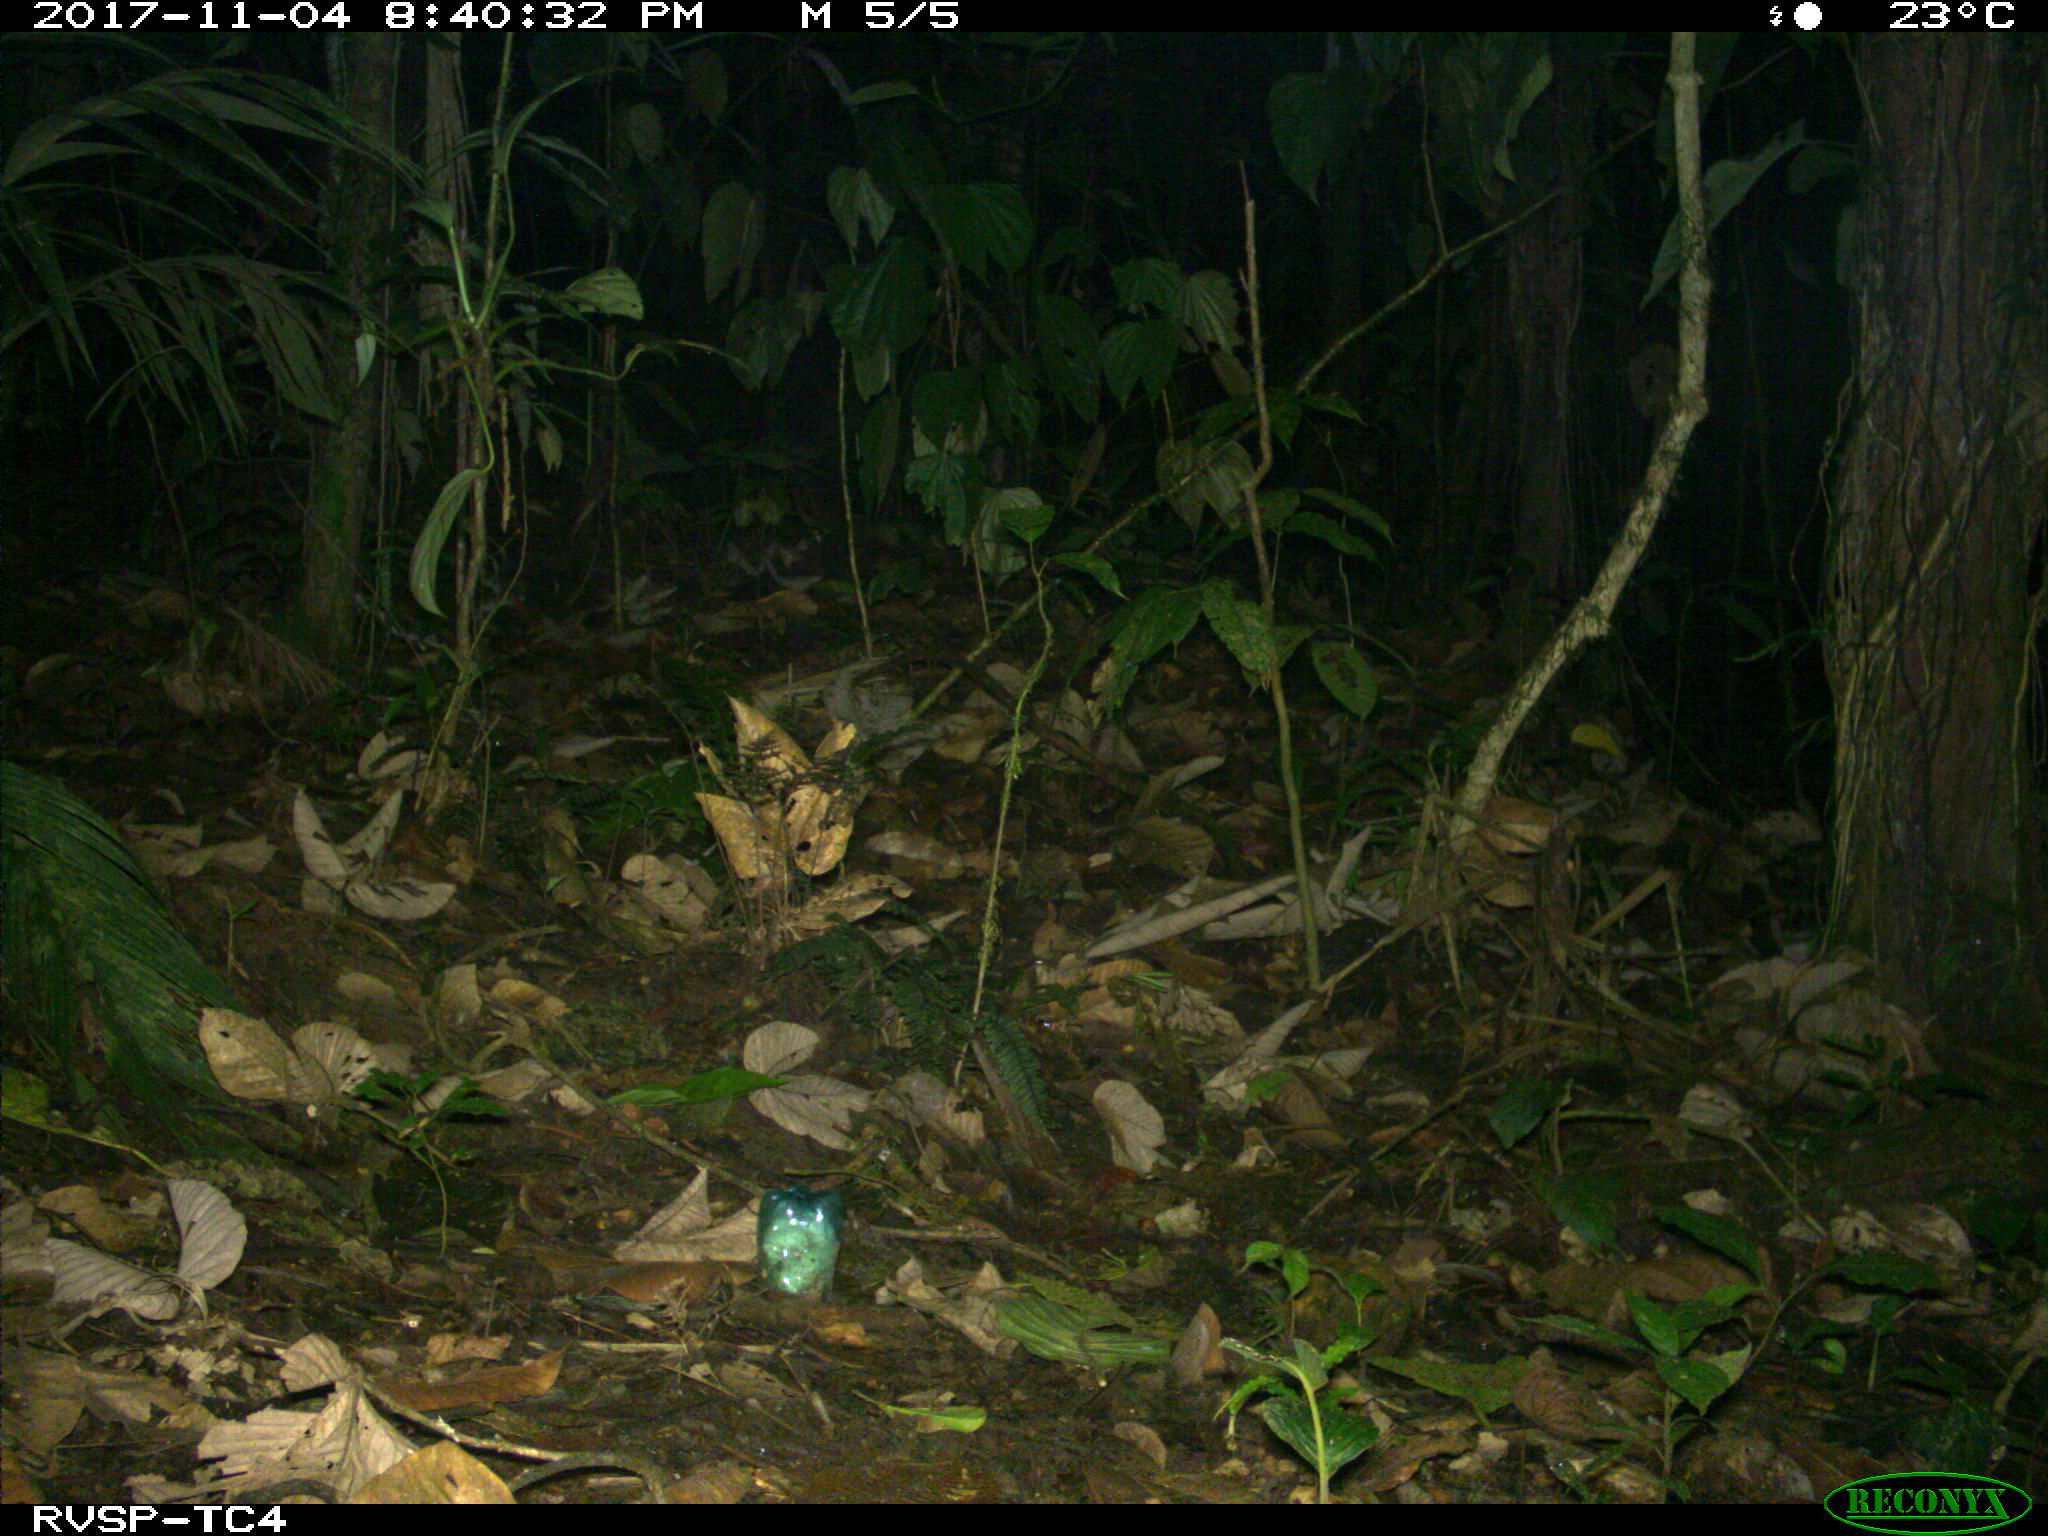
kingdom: Animalia
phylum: Chordata
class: Mammalia
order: Rodentia
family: Cuniculidae
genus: Cuniculus
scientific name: Cuniculus paca
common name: Lowland paca
